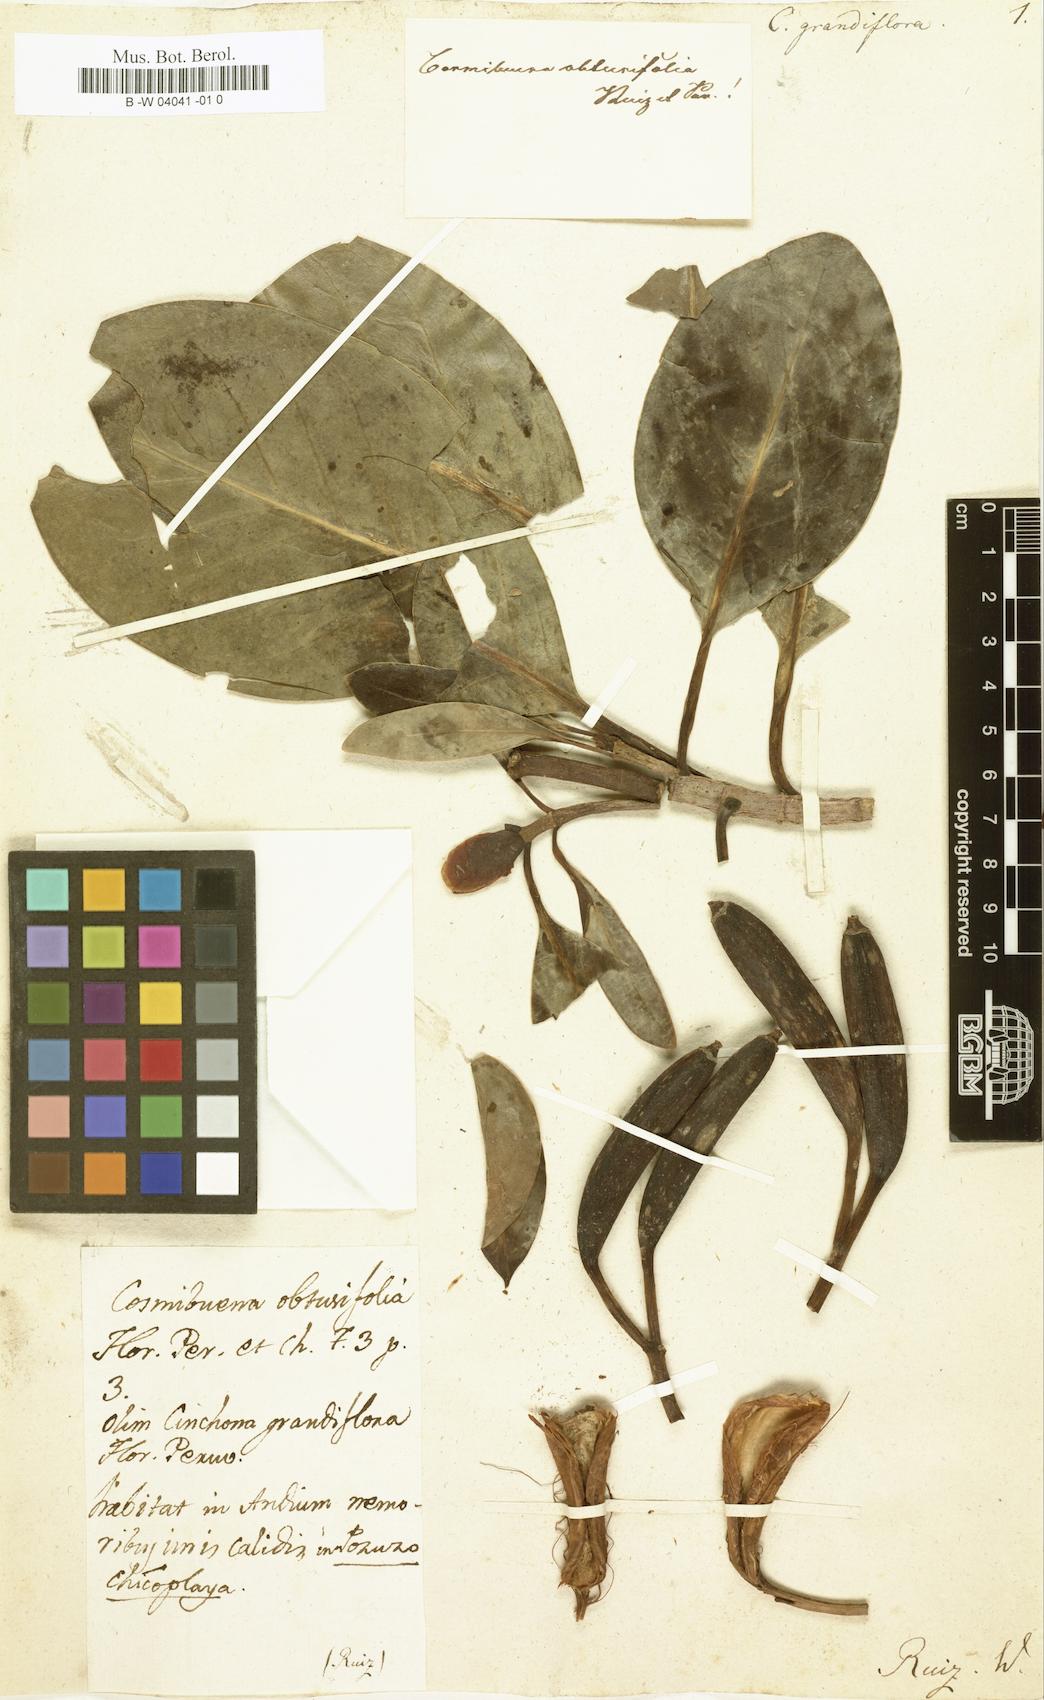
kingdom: Plantae
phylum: Tracheophyta
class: Magnoliopsida
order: Gentianales
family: Rubiaceae
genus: Cosmibuena
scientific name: Cosmibuena grandiflora
